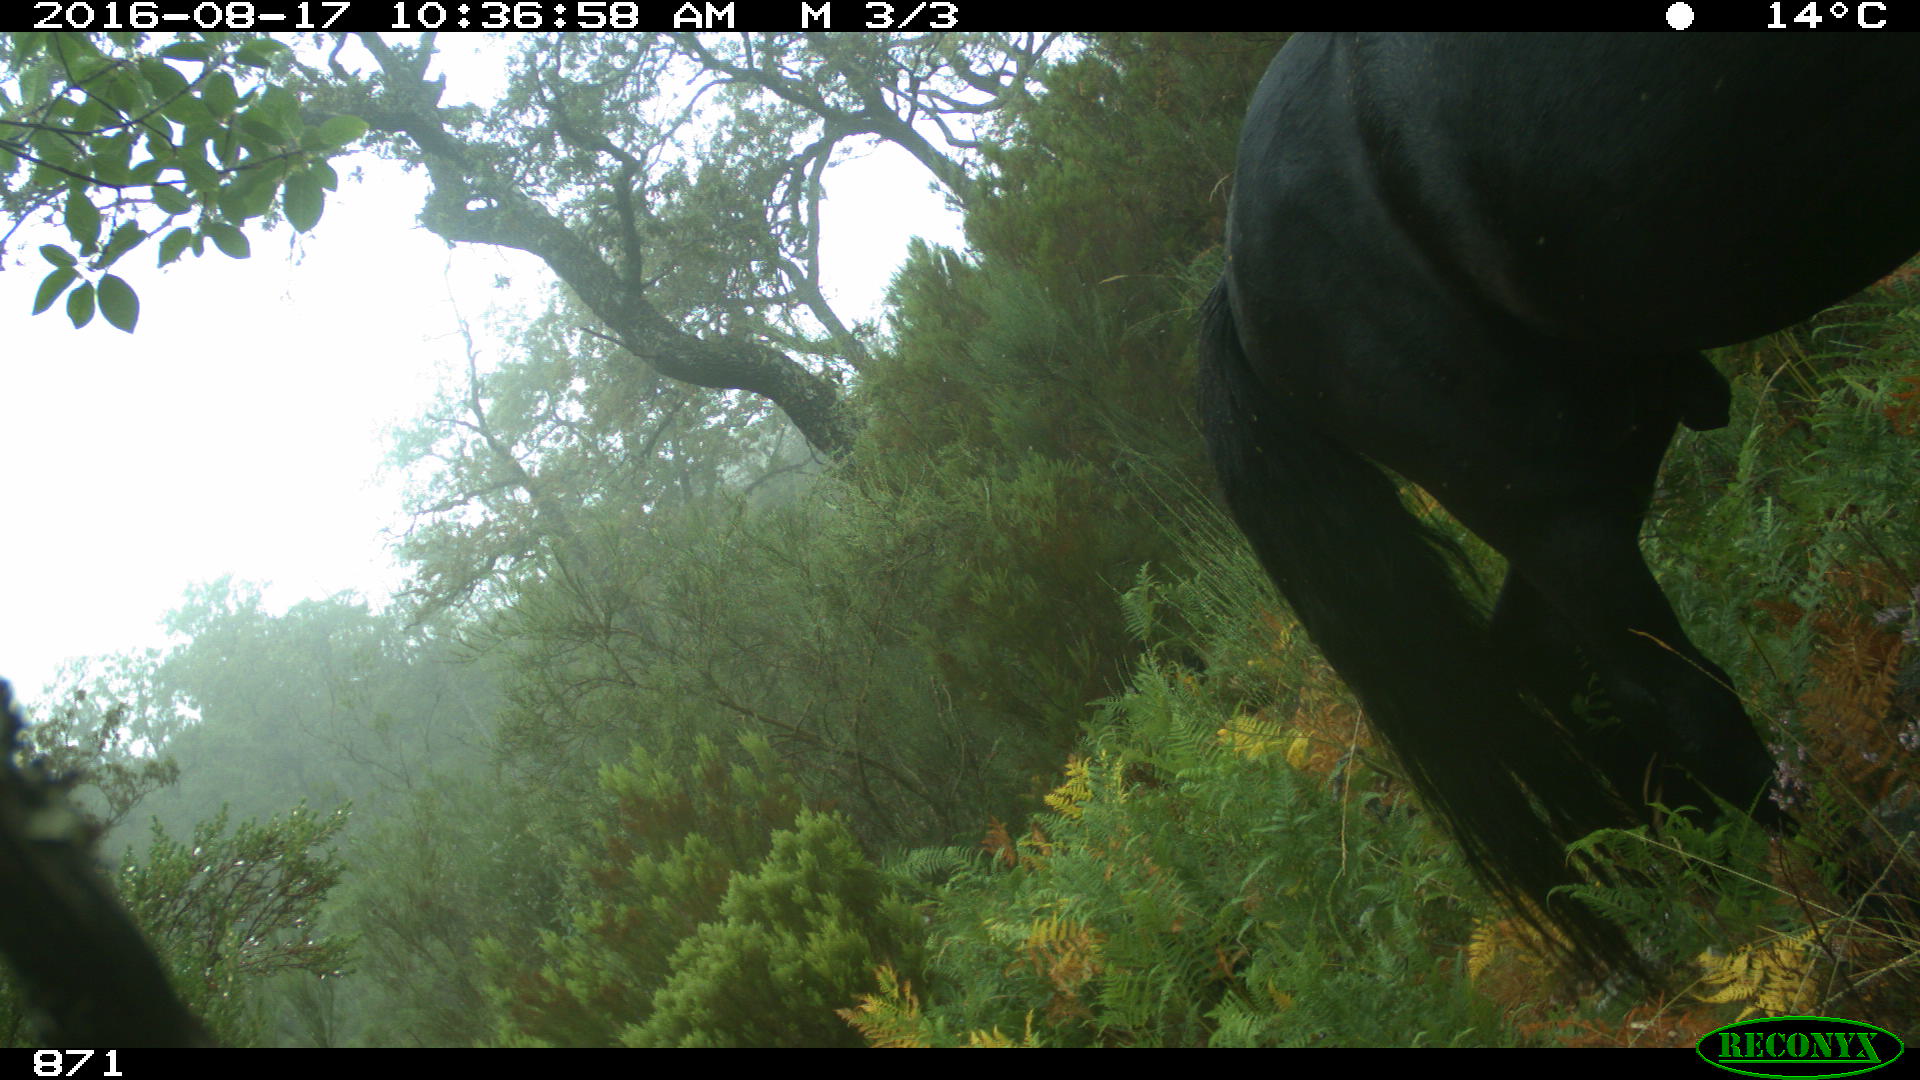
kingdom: Animalia
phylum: Chordata
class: Mammalia
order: Perissodactyla
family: Equidae
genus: Equus
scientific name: Equus caballus
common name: Horse
